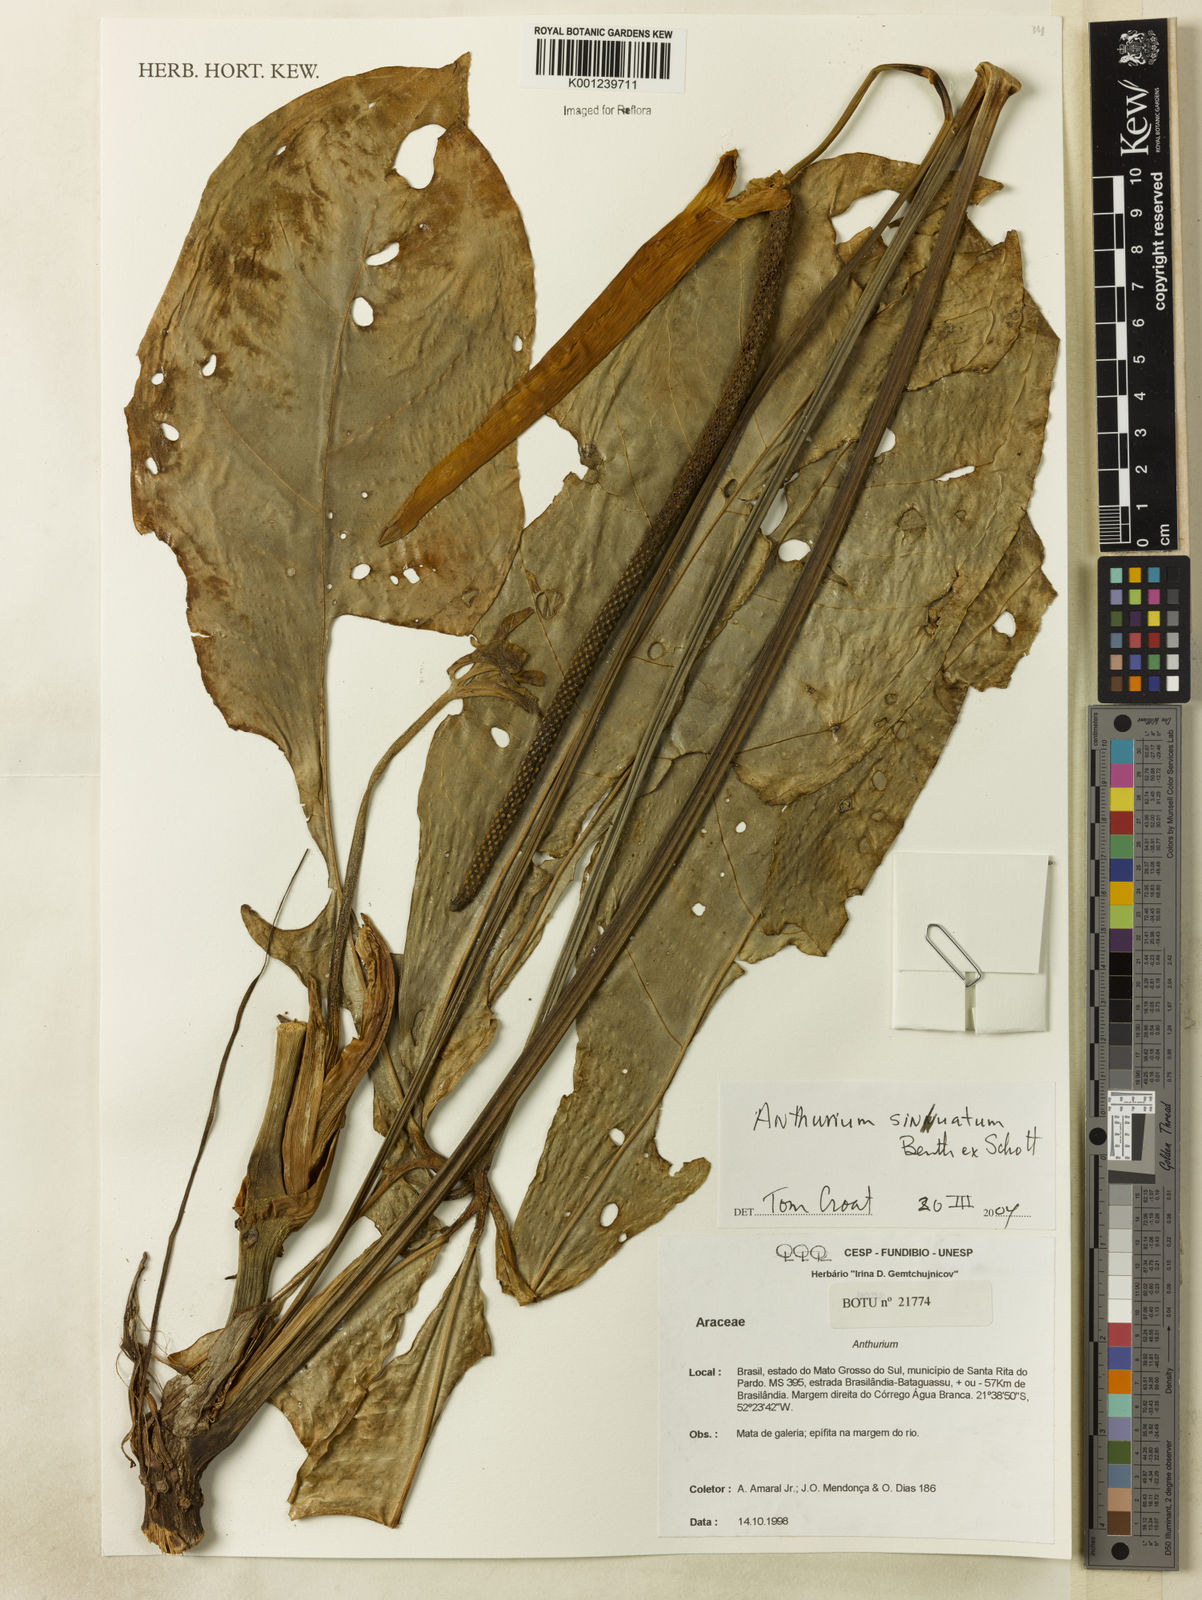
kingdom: Plantae
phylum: Tracheophyta
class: Liliopsida
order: Alismatales
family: Araceae
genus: Anthurium
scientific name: Anthurium sinuatum
